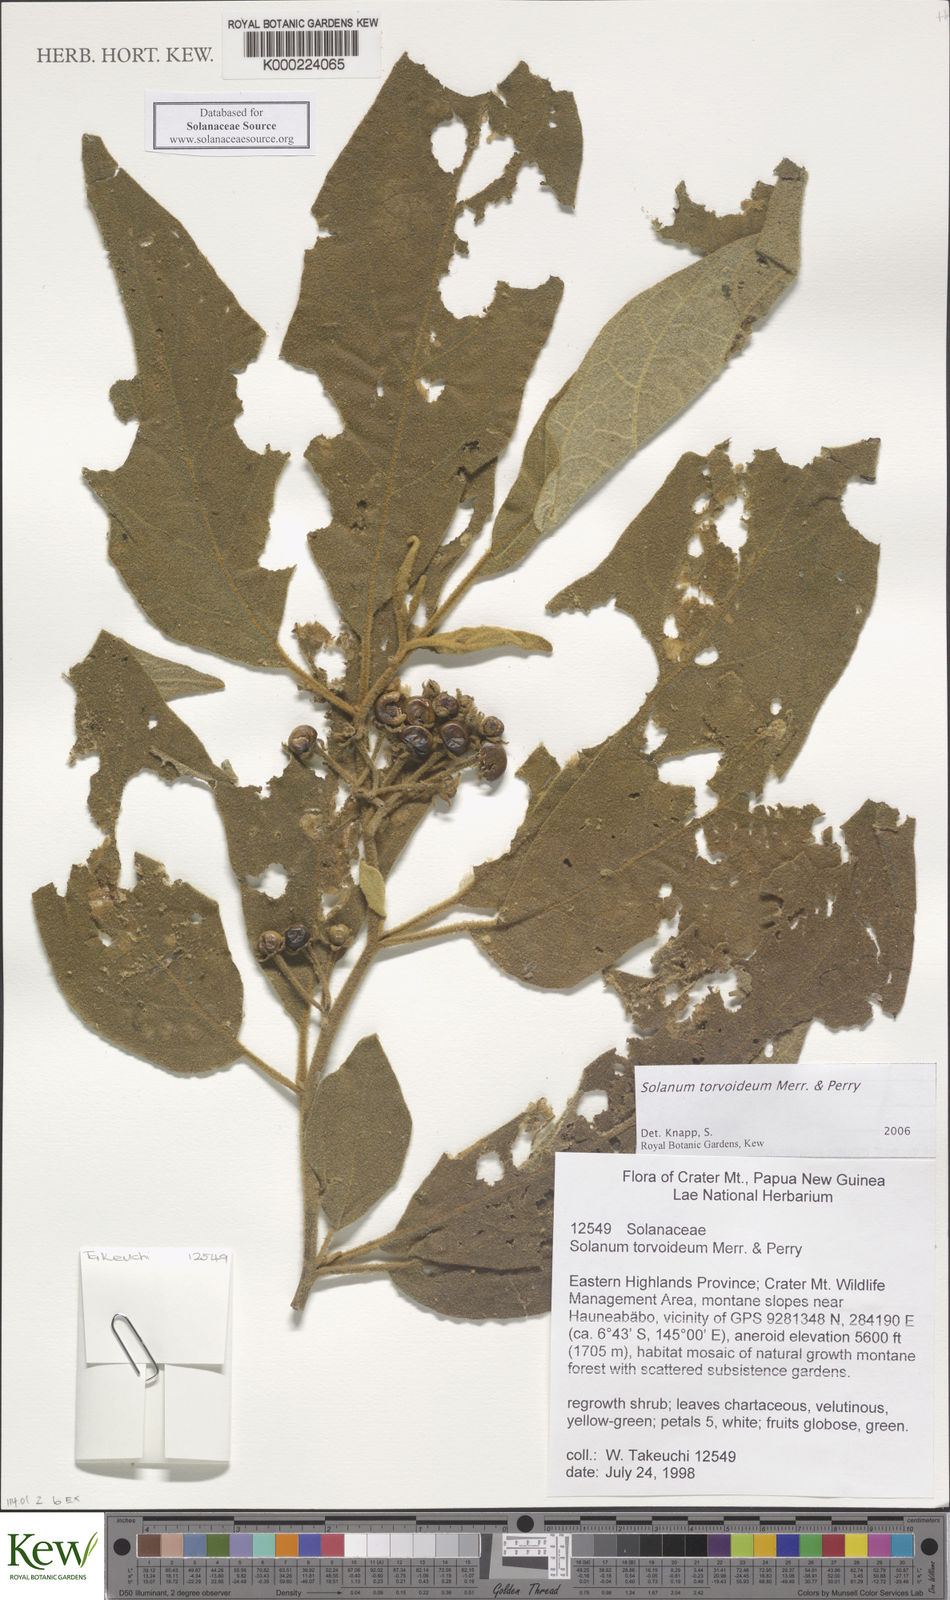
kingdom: Plantae
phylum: Tracheophyta
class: Magnoliopsida
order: Solanales
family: Solanaceae
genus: Solanum
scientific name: Solanum torvoideum
